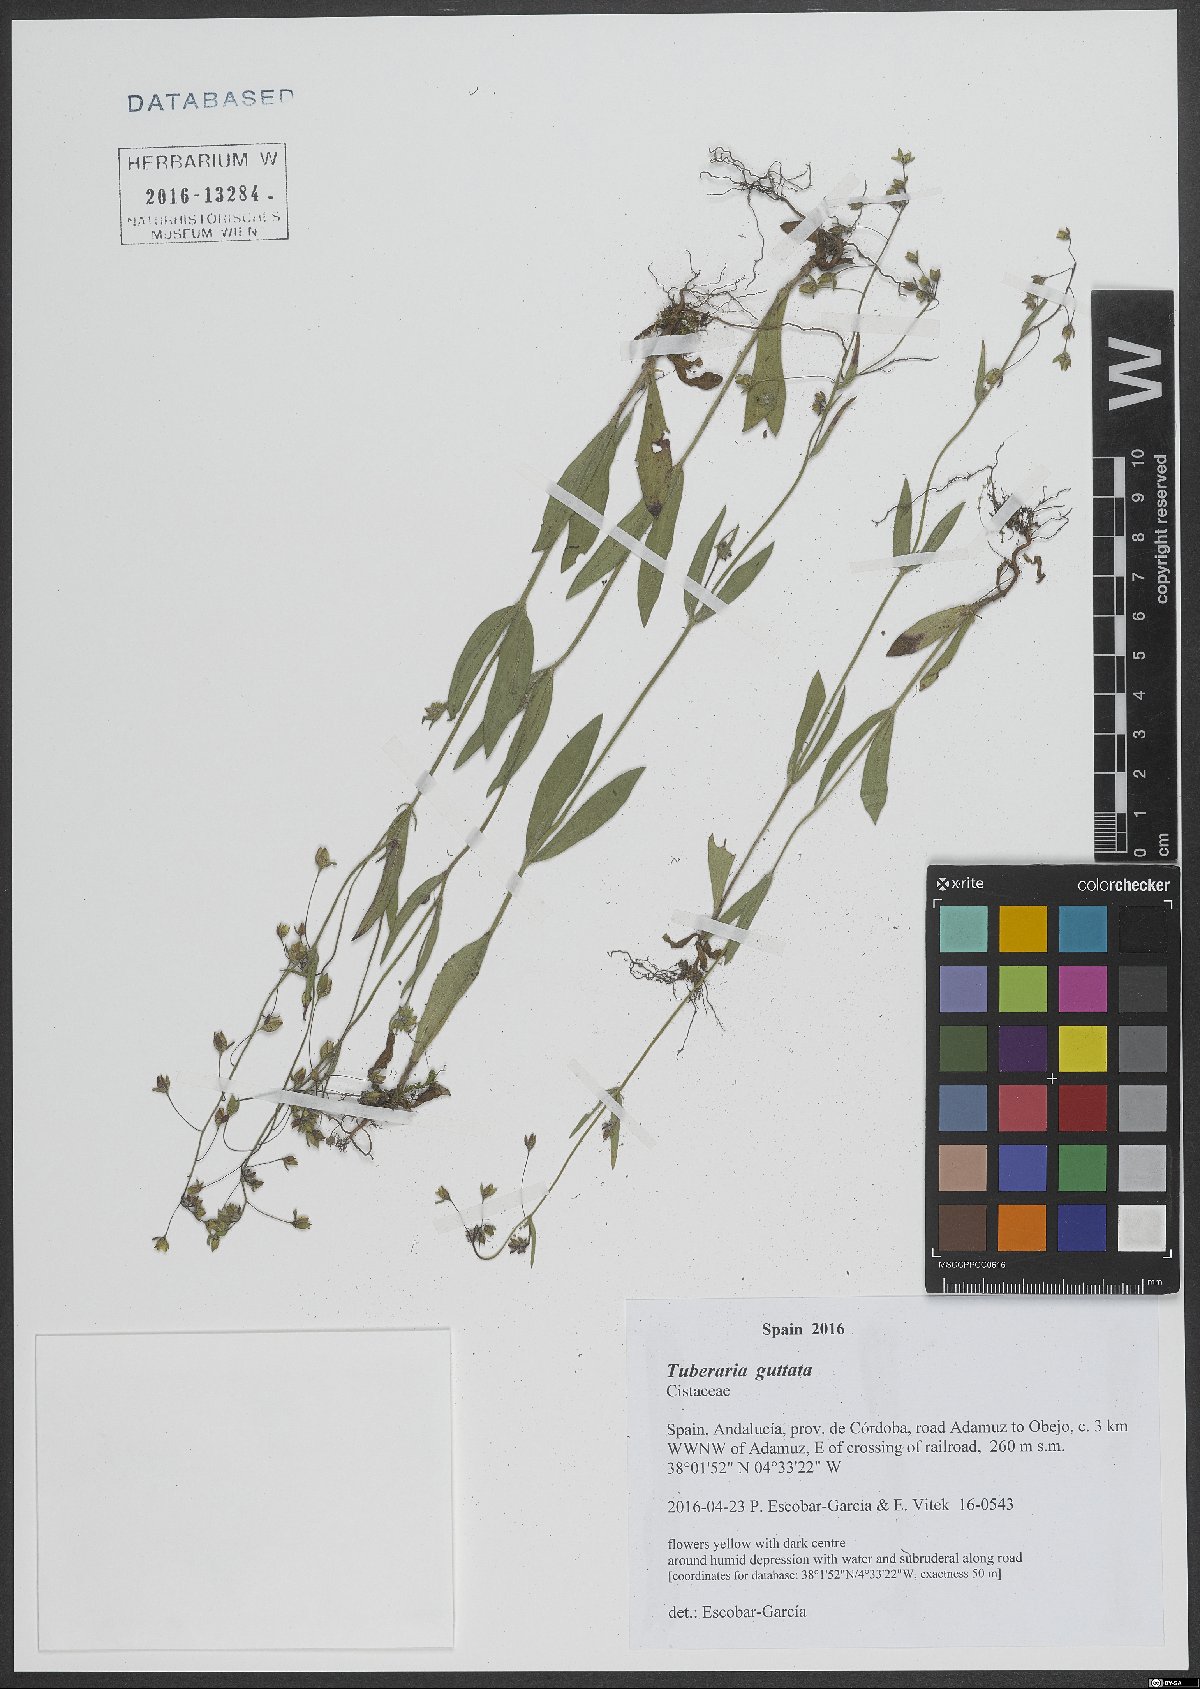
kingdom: Plantae
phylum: Tracheophyta
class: Magnoliopsida
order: Malvales
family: Cistaceae
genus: Tuberaria
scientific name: Tuberaria guttata
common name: Spotted rock-rose
